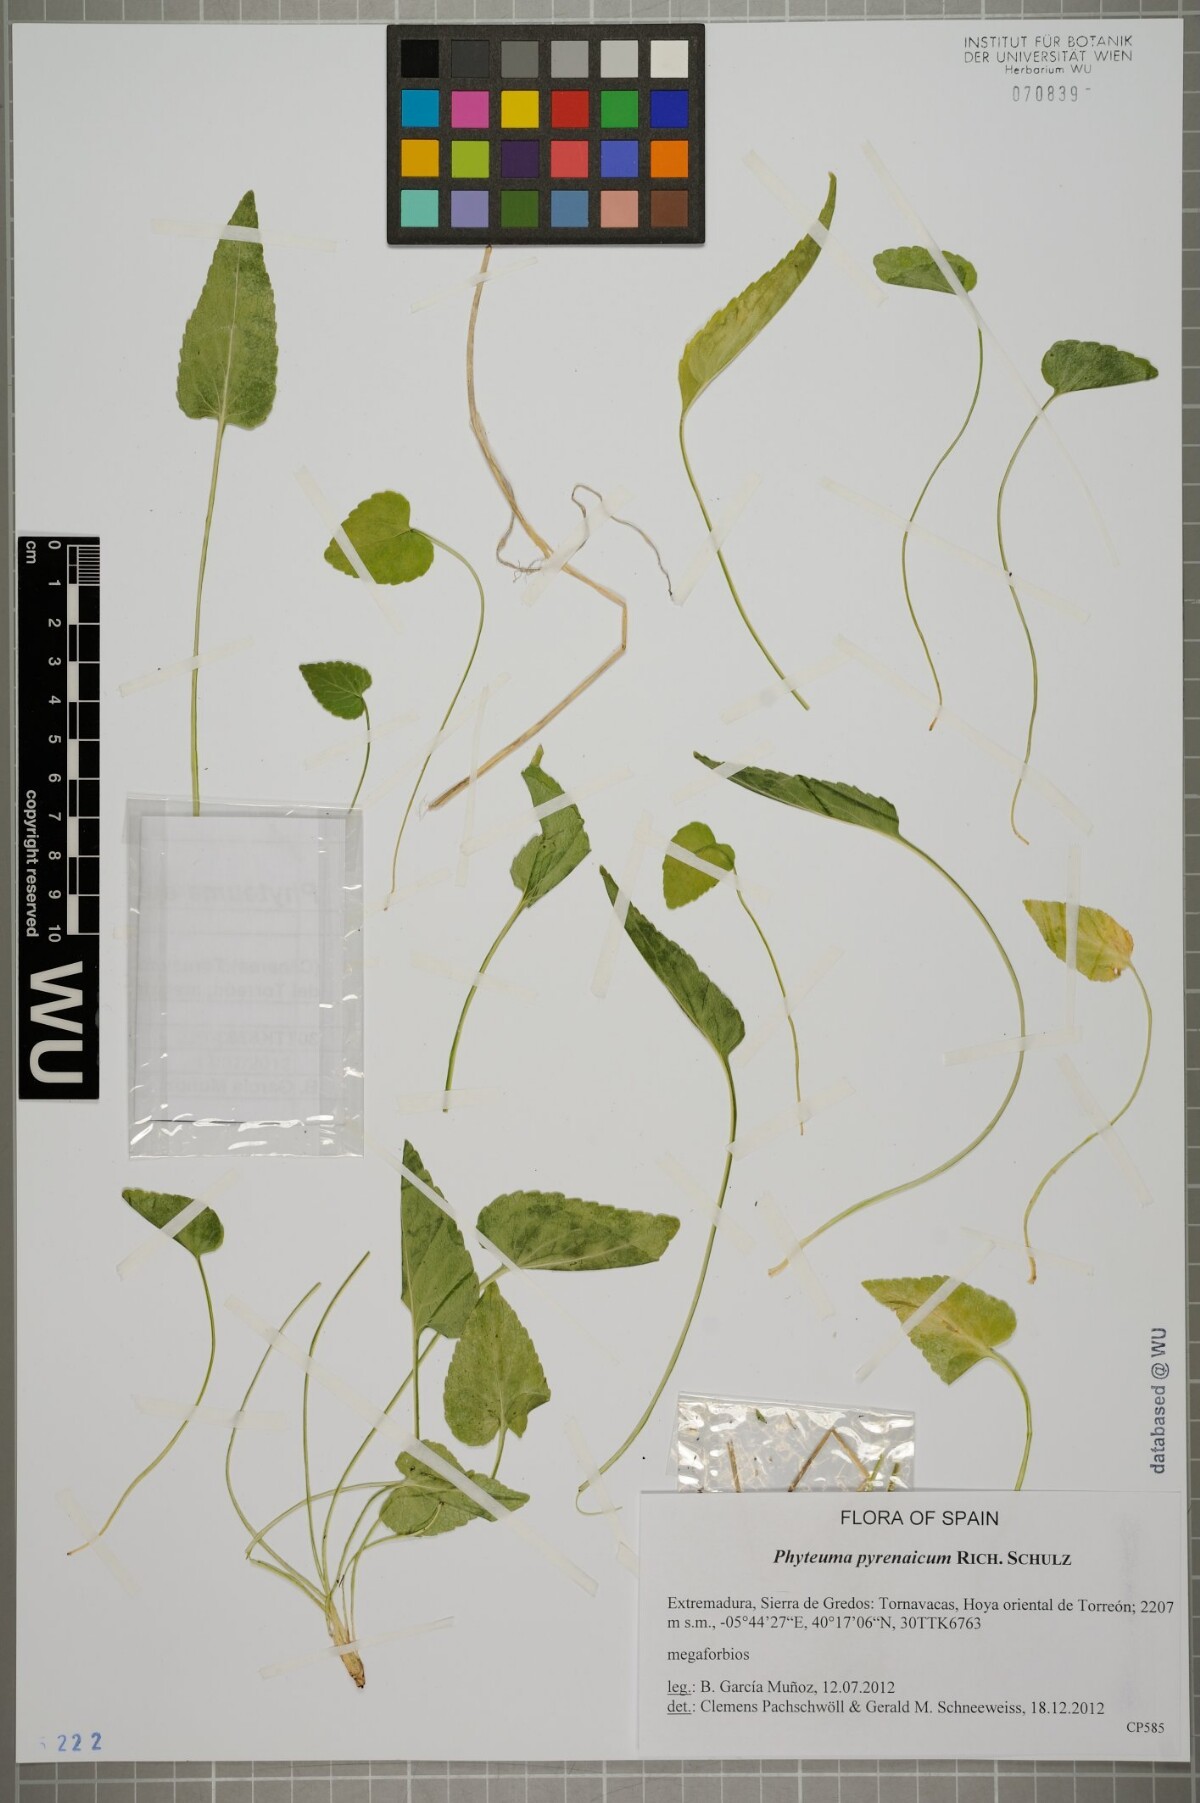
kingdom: Plantae
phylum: Tracheophyta
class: Magnoliopsida
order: Asterales
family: Campanulaceae
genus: Phyteuma
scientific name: Phyteuma spicatum
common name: Spiked rampion
